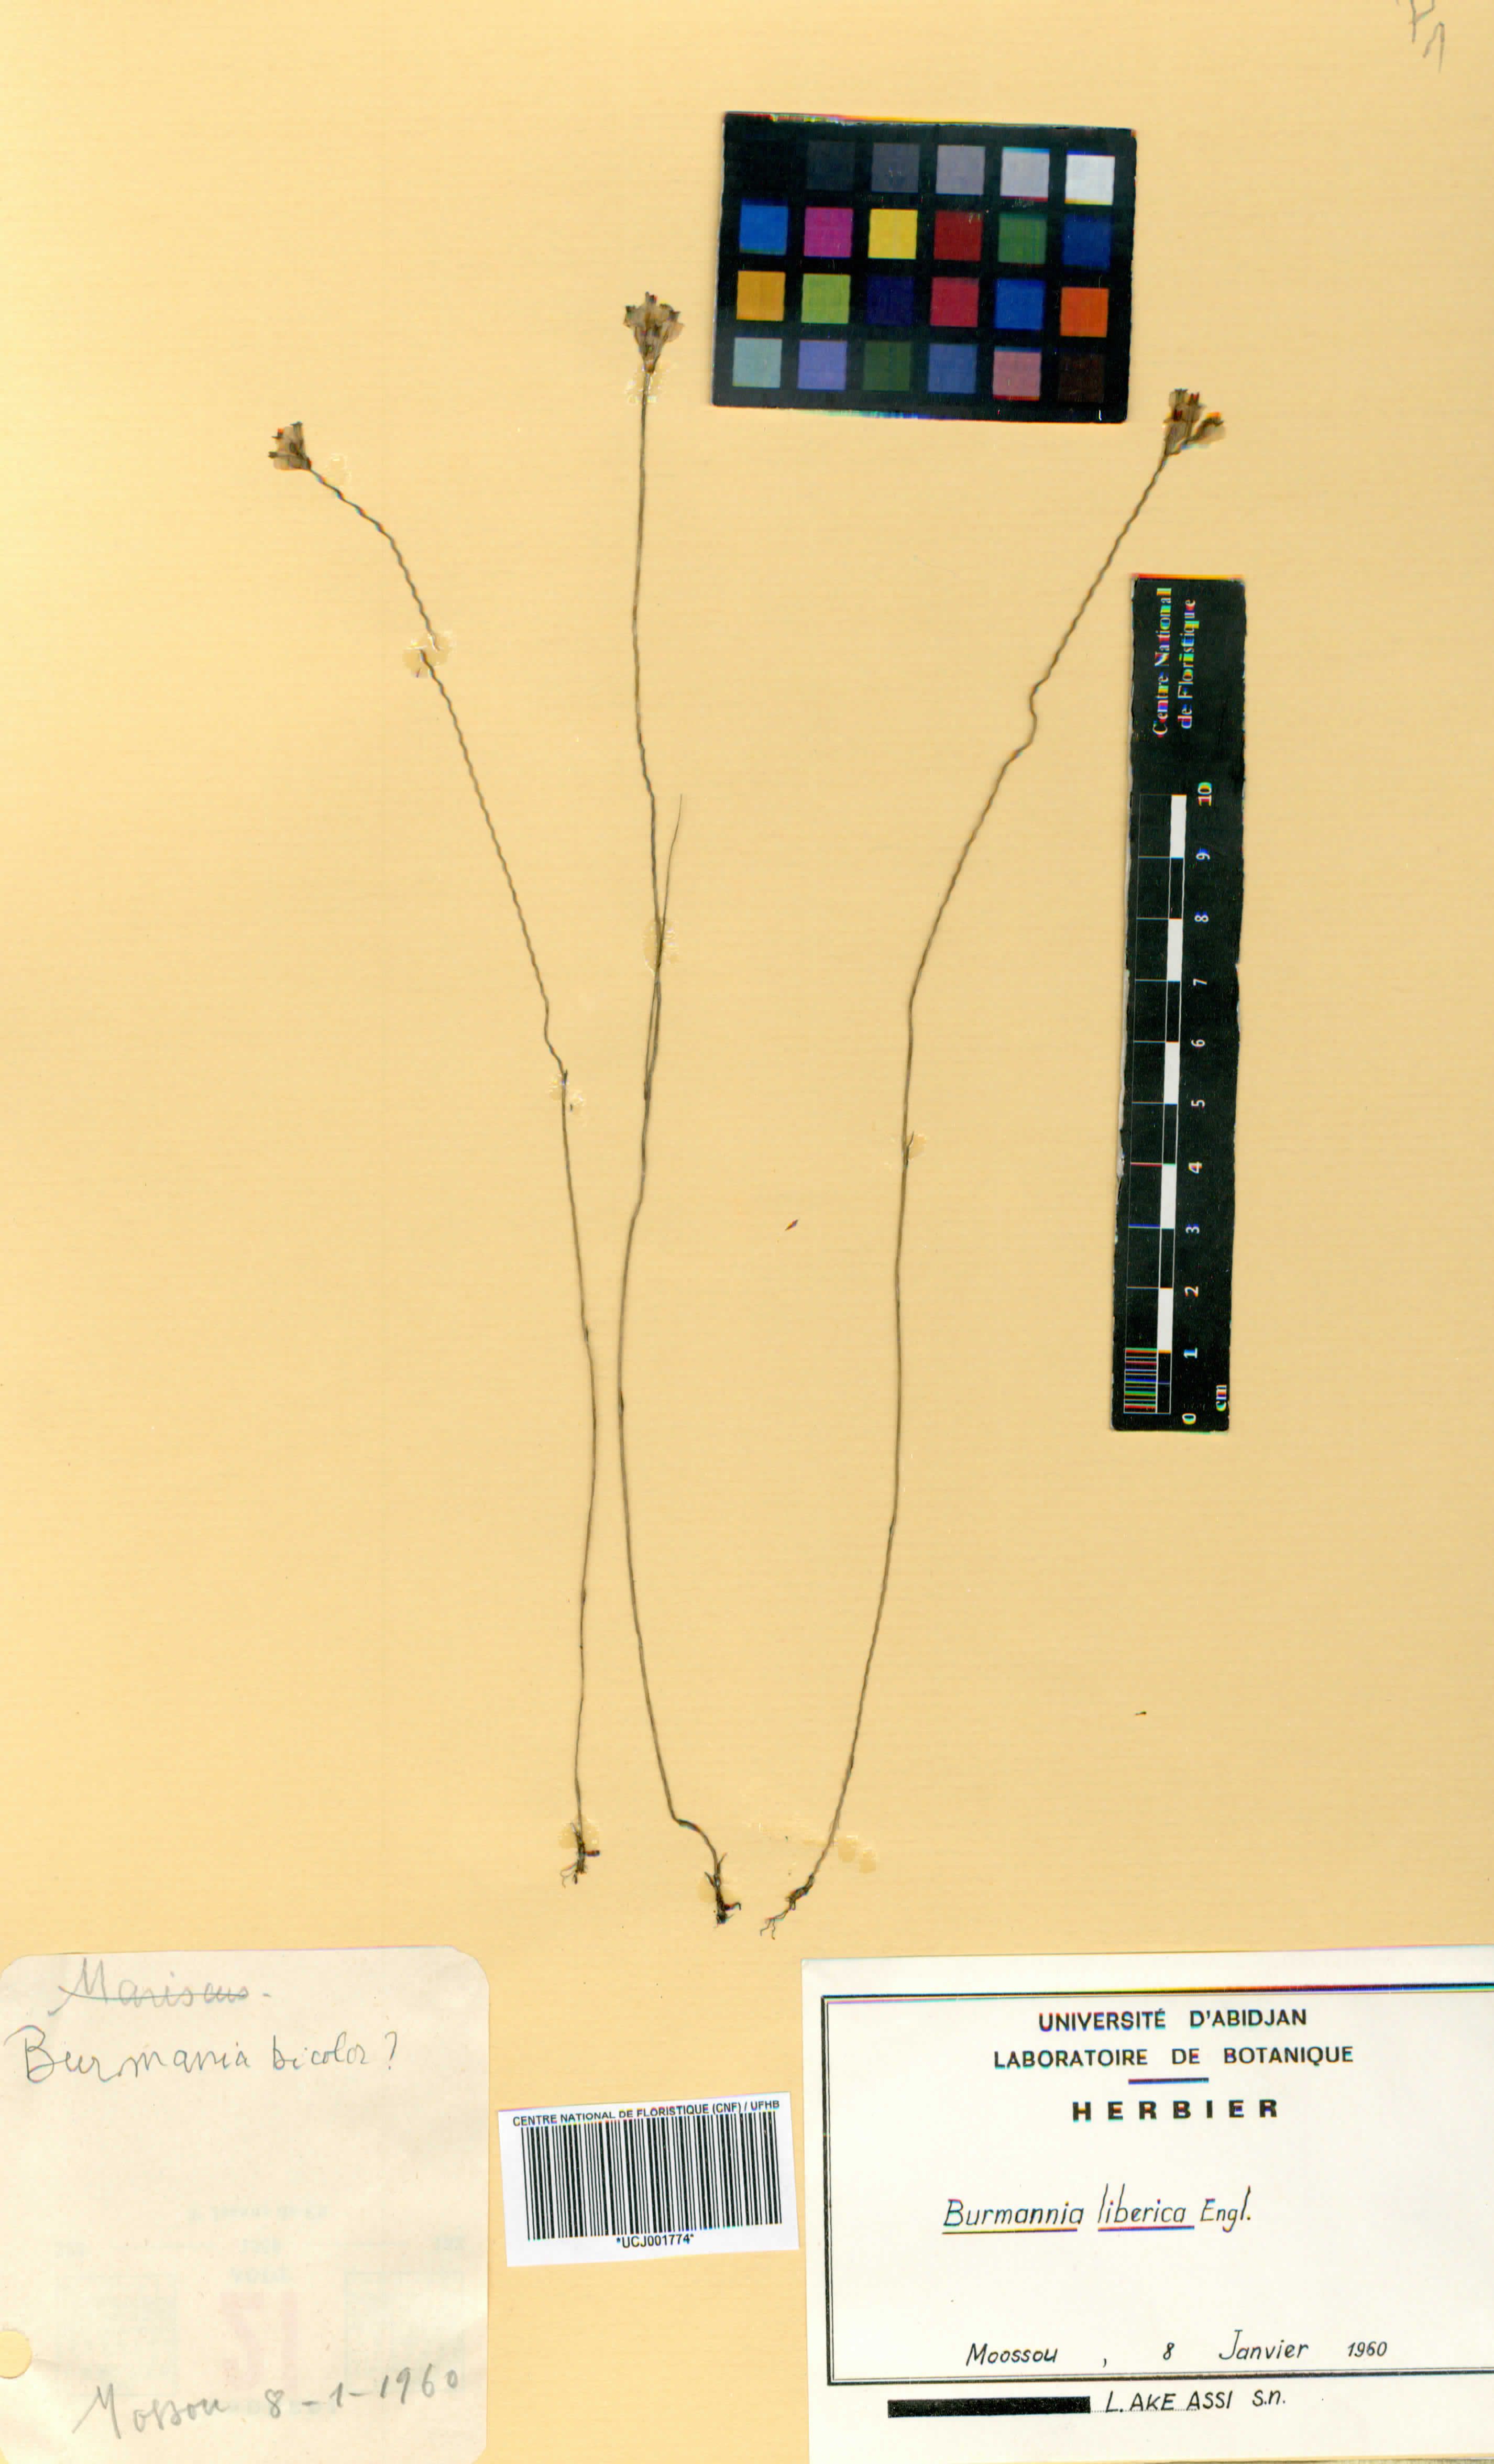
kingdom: Plantae
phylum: Tracheophyta
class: Liliopsida
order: Dioscoreales
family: Burmanniaceae
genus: Burmannia
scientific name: Burmannia latialata
